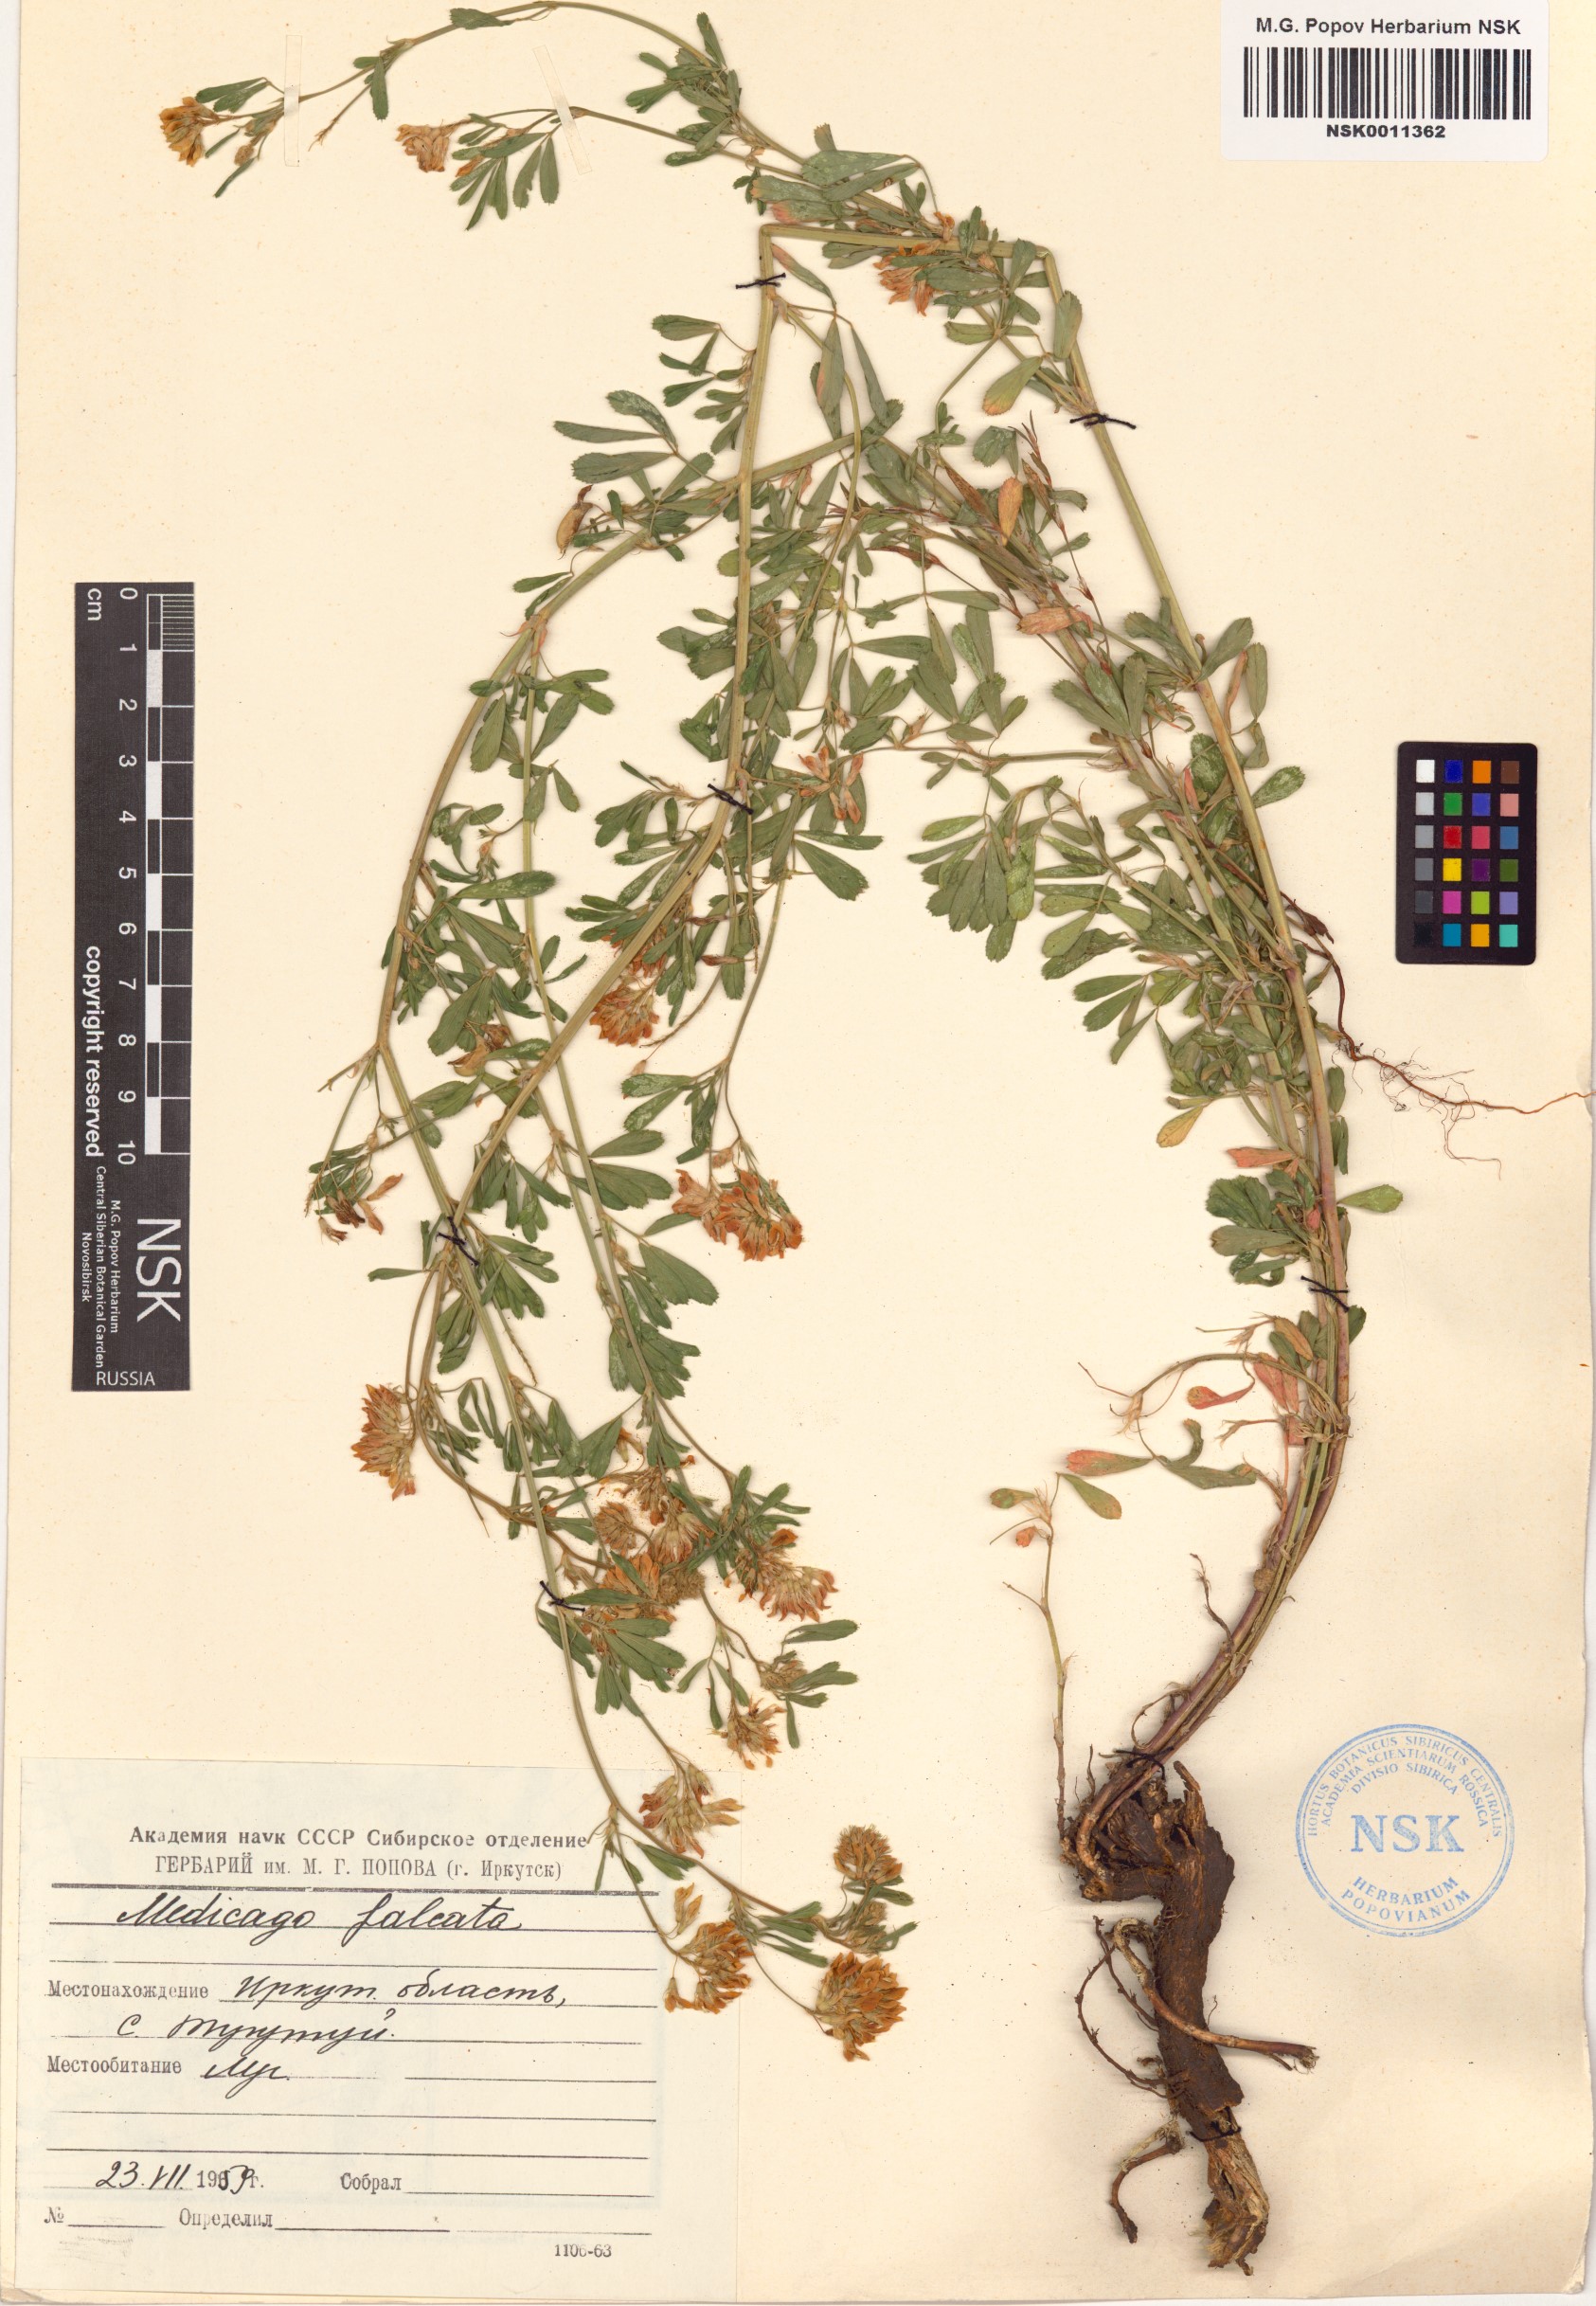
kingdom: Plantae
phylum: Tracheophyta
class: Magnoliopsida
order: Fabales
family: Fabaceae
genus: Medicago
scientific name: Medicago falcata
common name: Sickle medick
